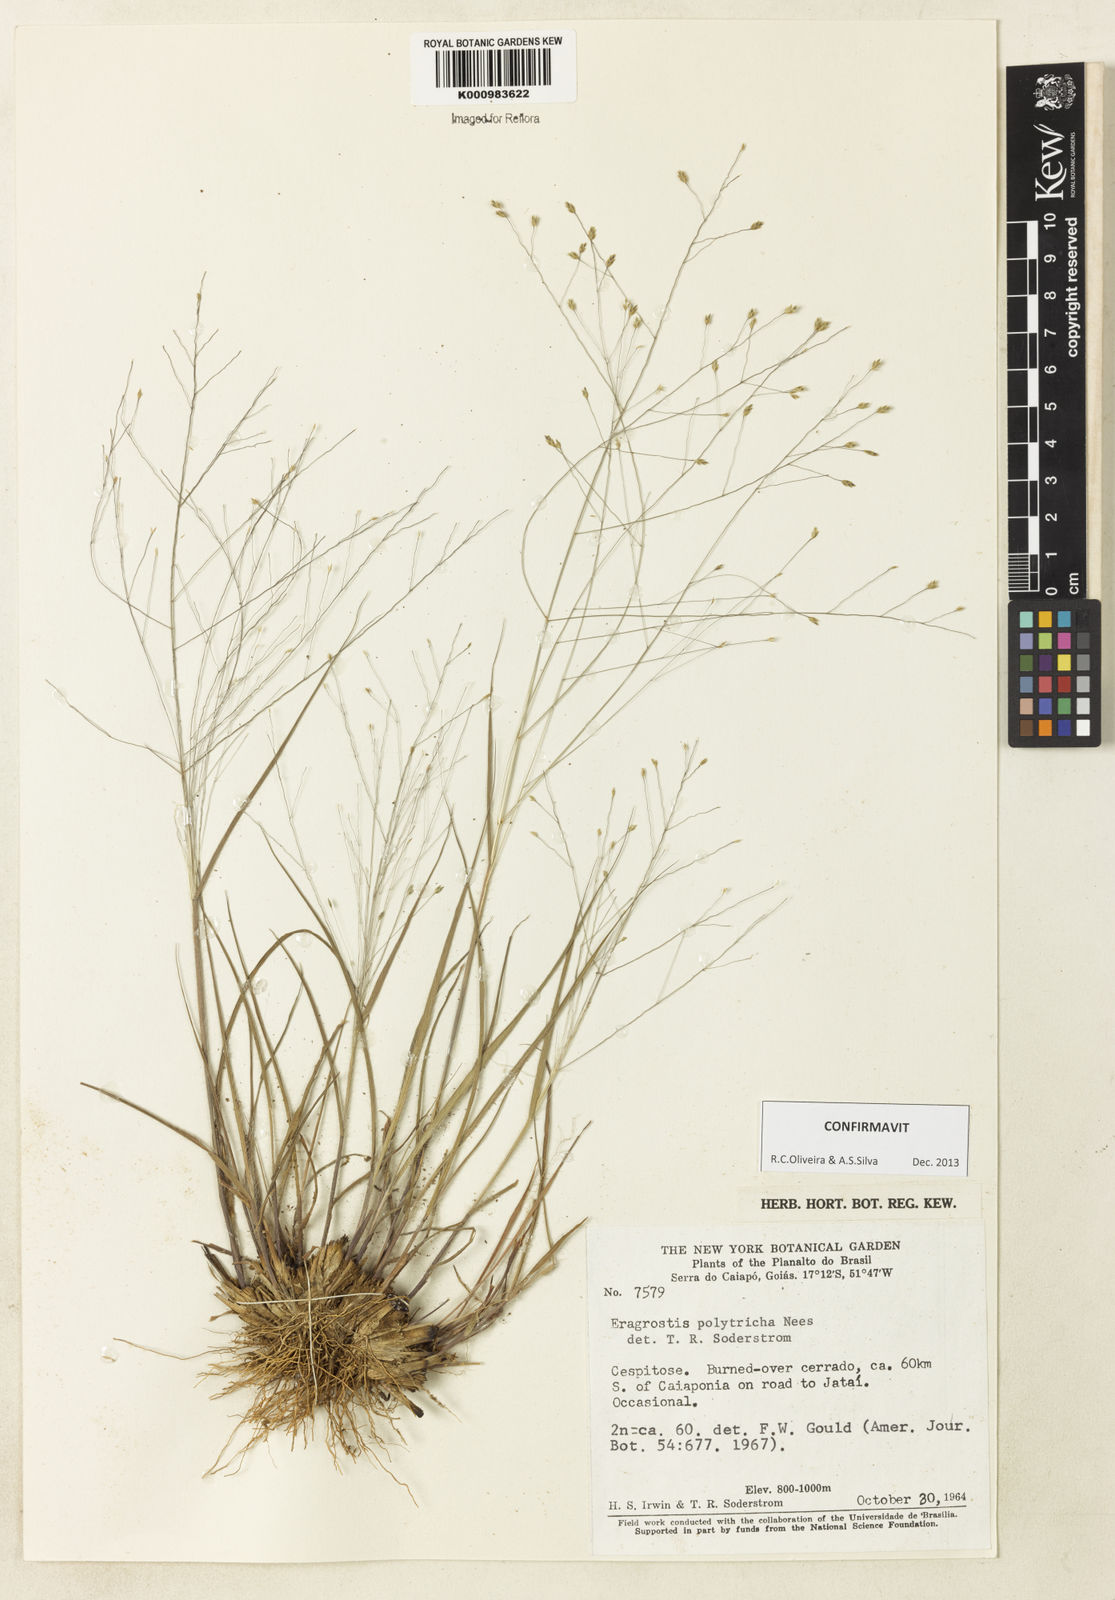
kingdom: Plantae
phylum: Tracheophyta
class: Liliopsida
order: Poales
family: Poaceae
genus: Eragrostis
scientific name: Eragrostis polytricha
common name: Hairy-sheath love grass
